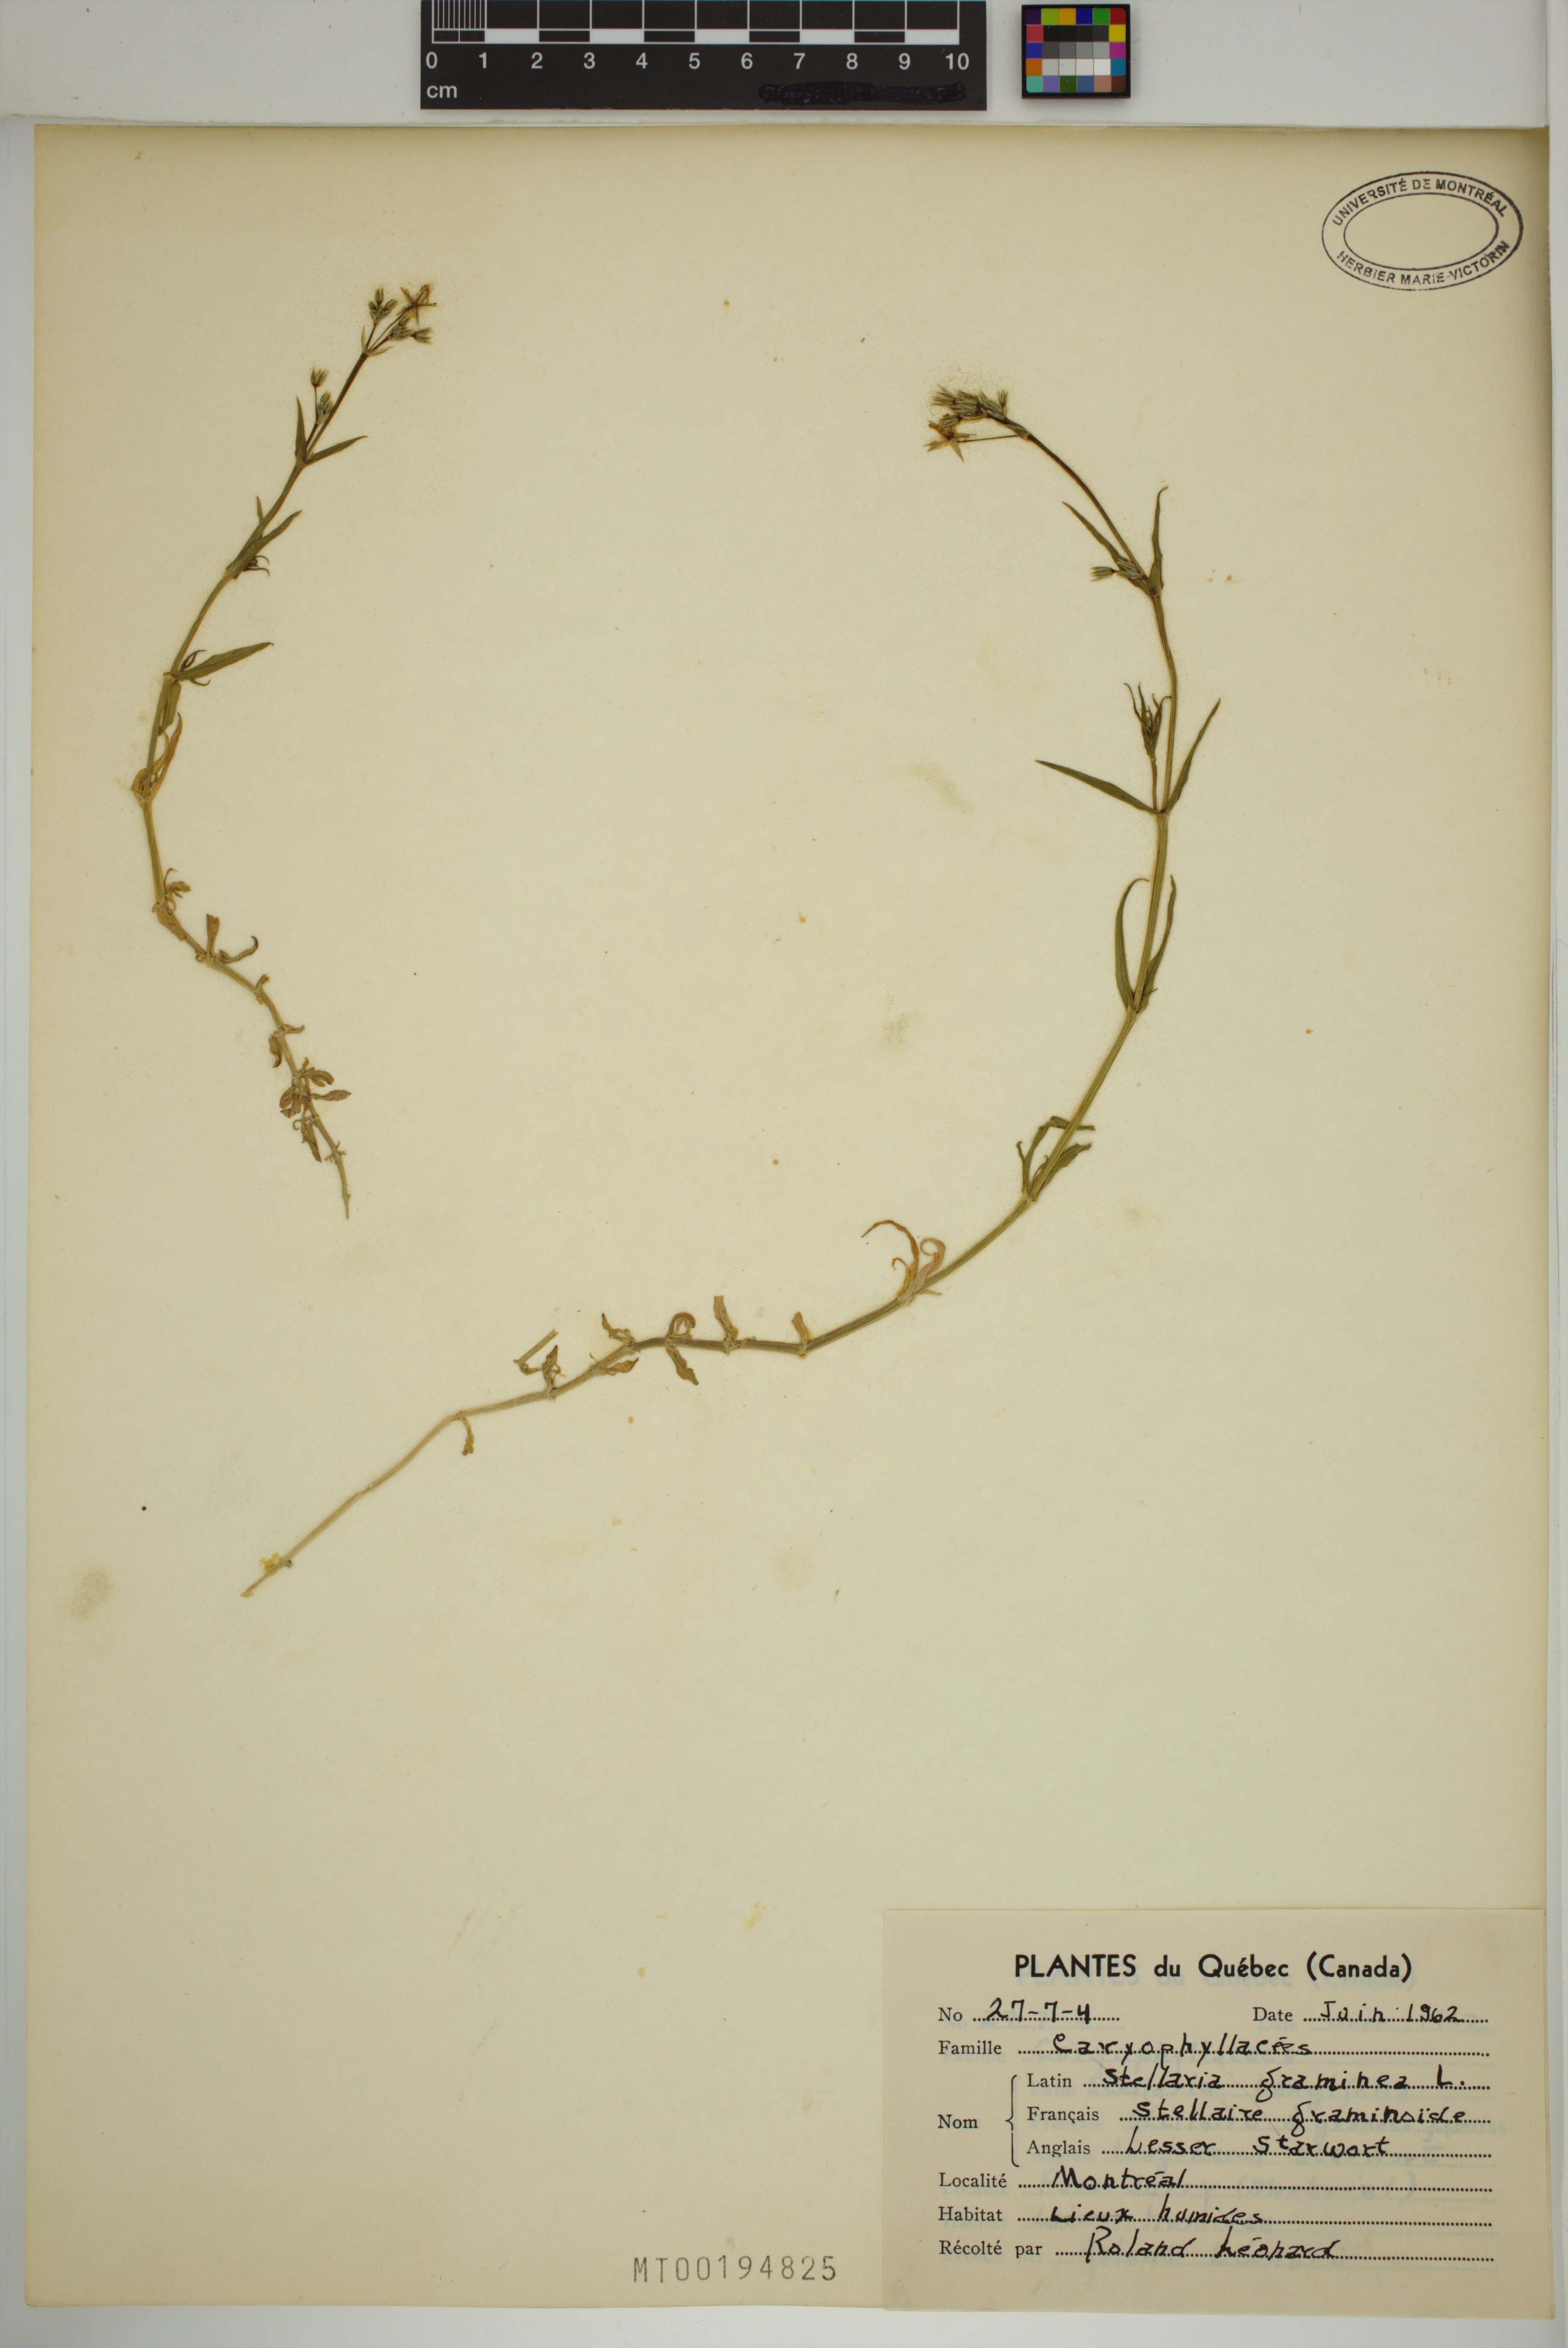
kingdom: Plantae
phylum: Tracheophyta
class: Magnoliopsida
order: Caryophyllales
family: Caryophyllaceae
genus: Stellaria
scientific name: Stellaria graminea
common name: Grass-like starwort
